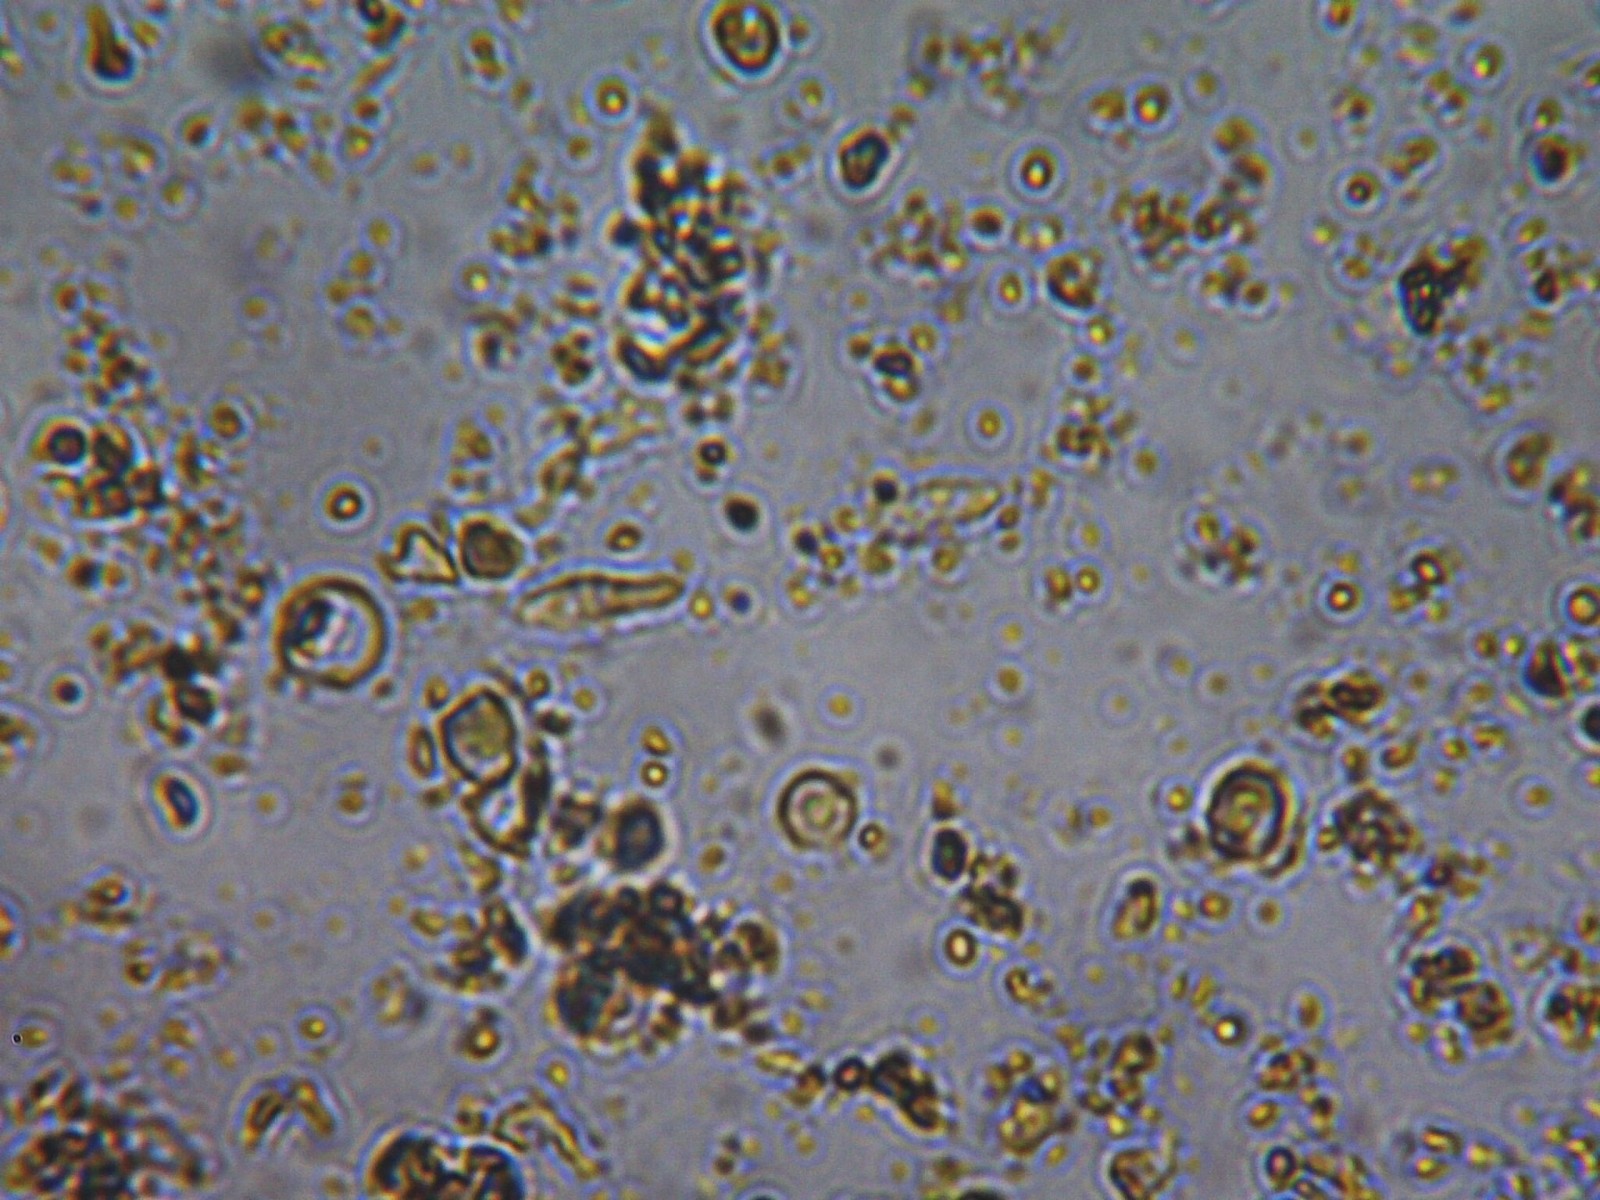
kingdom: Fungi
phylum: Ascomycota
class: Arthoniomycetes
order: Arthoniales
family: Arthoniaceae
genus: Arthonia
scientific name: Arthonia atra
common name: sort bogstavlav
